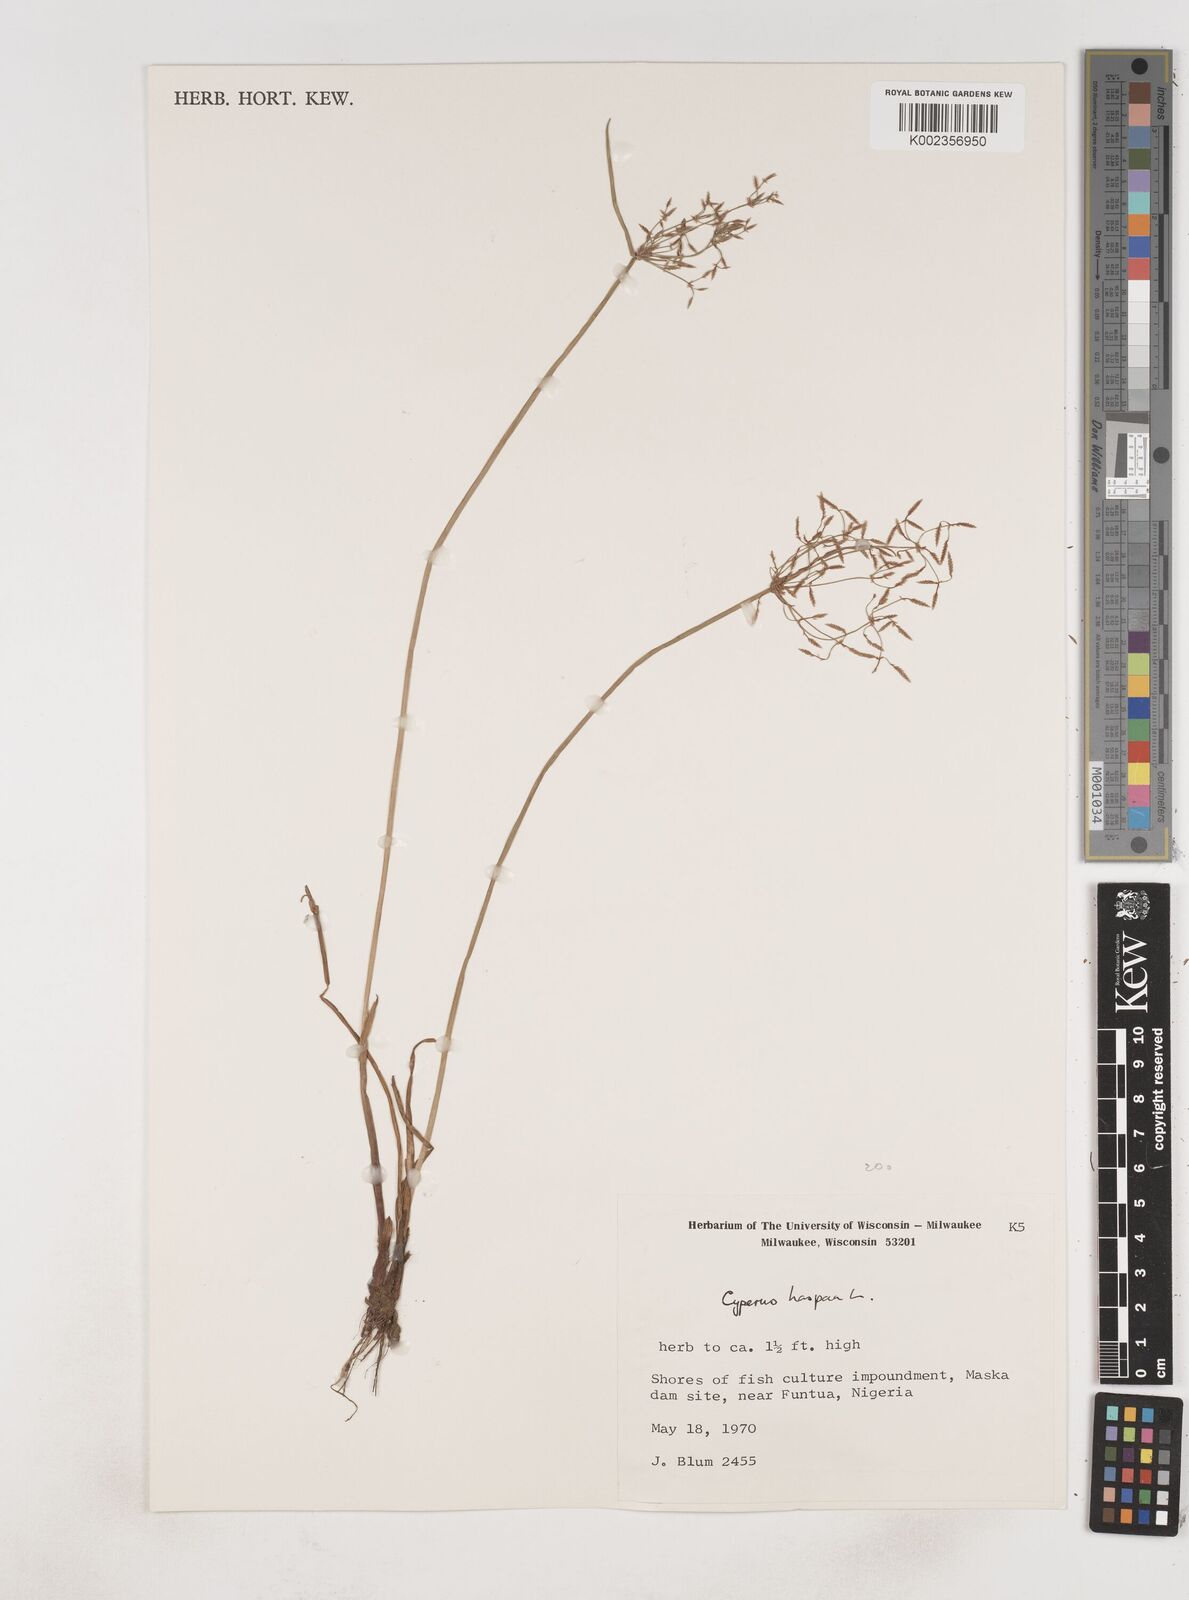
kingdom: Plantae
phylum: Tracheophyta
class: Liliopsida
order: Poales
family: Cyperaceae
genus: Cyperus
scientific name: Cyperus haspan
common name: Haspan flatsedge
